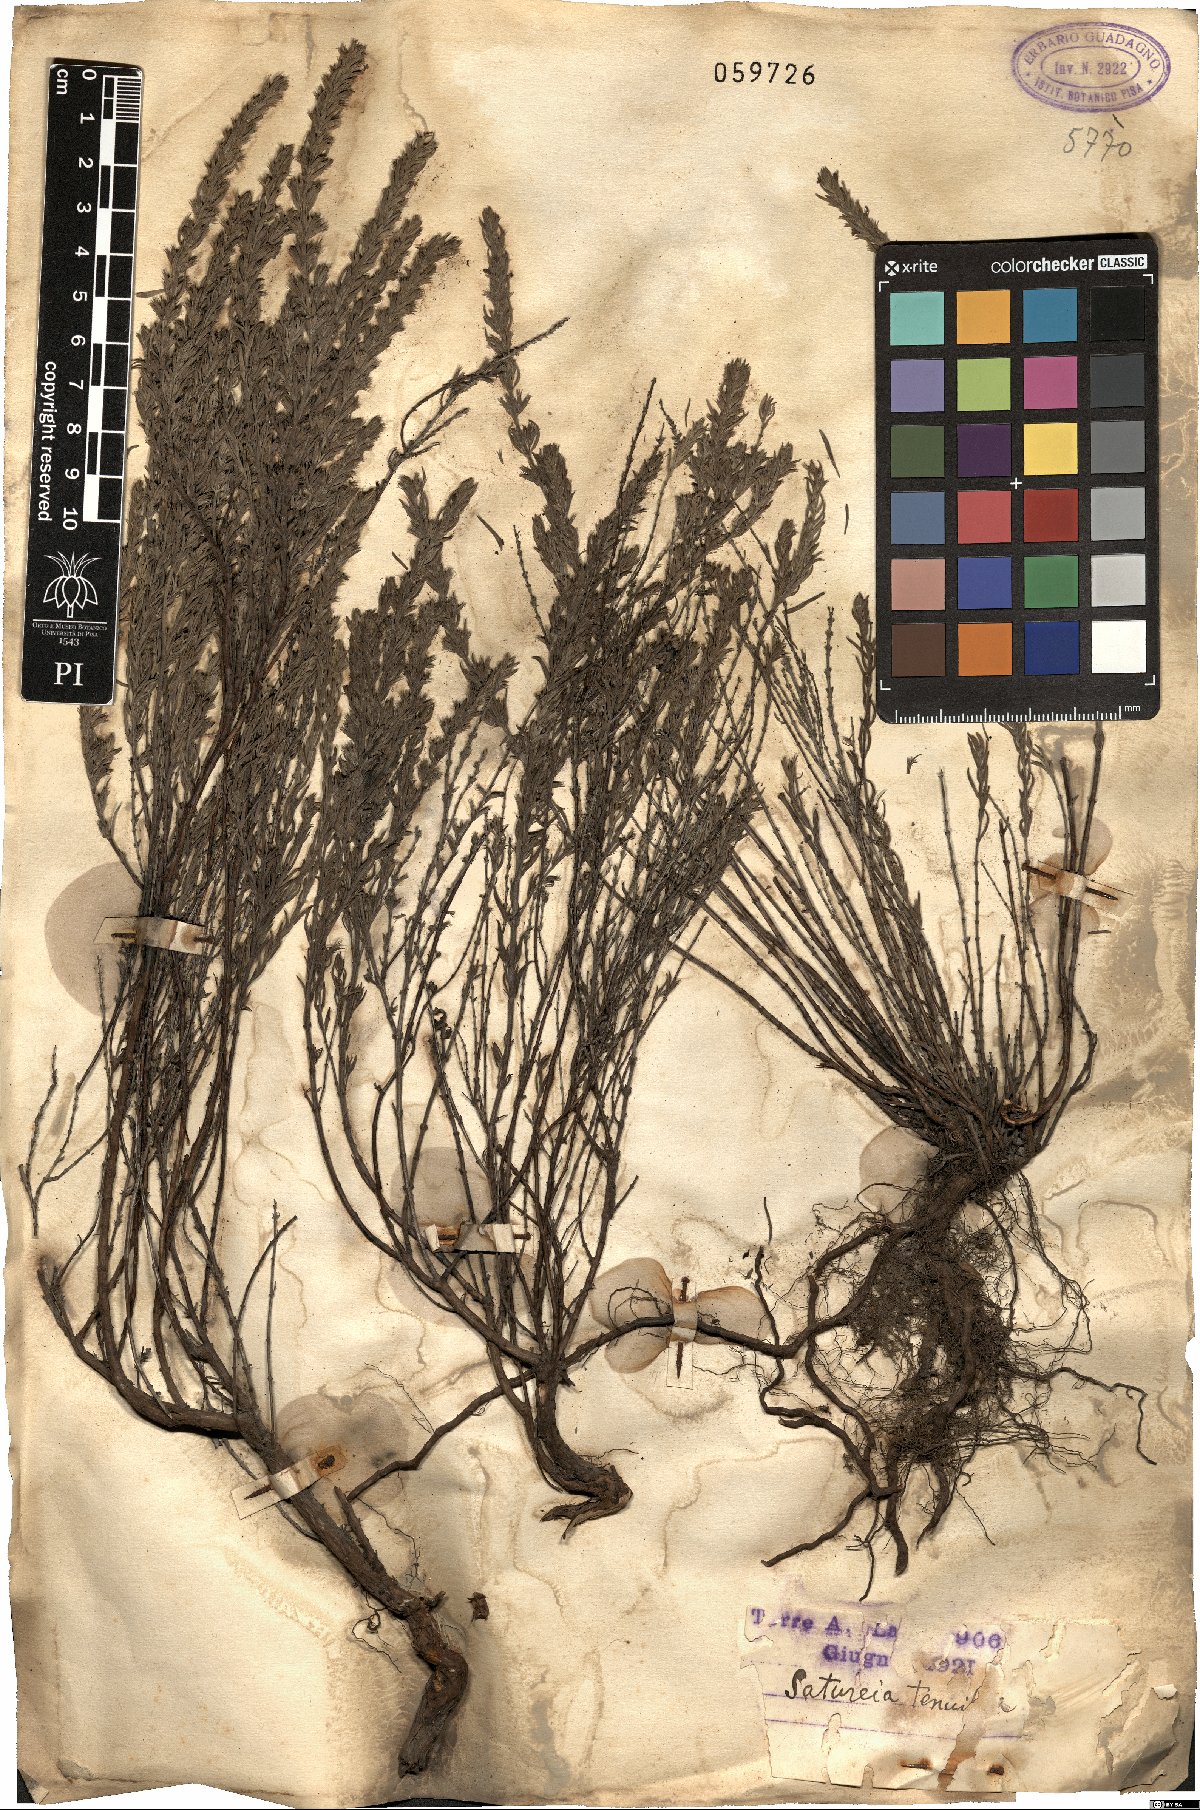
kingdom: Plantae
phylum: Tracheophyta
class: Magnoliopsida
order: Lamiales
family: Lamiaceae
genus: Micromeria
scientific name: Micromeria graeca
